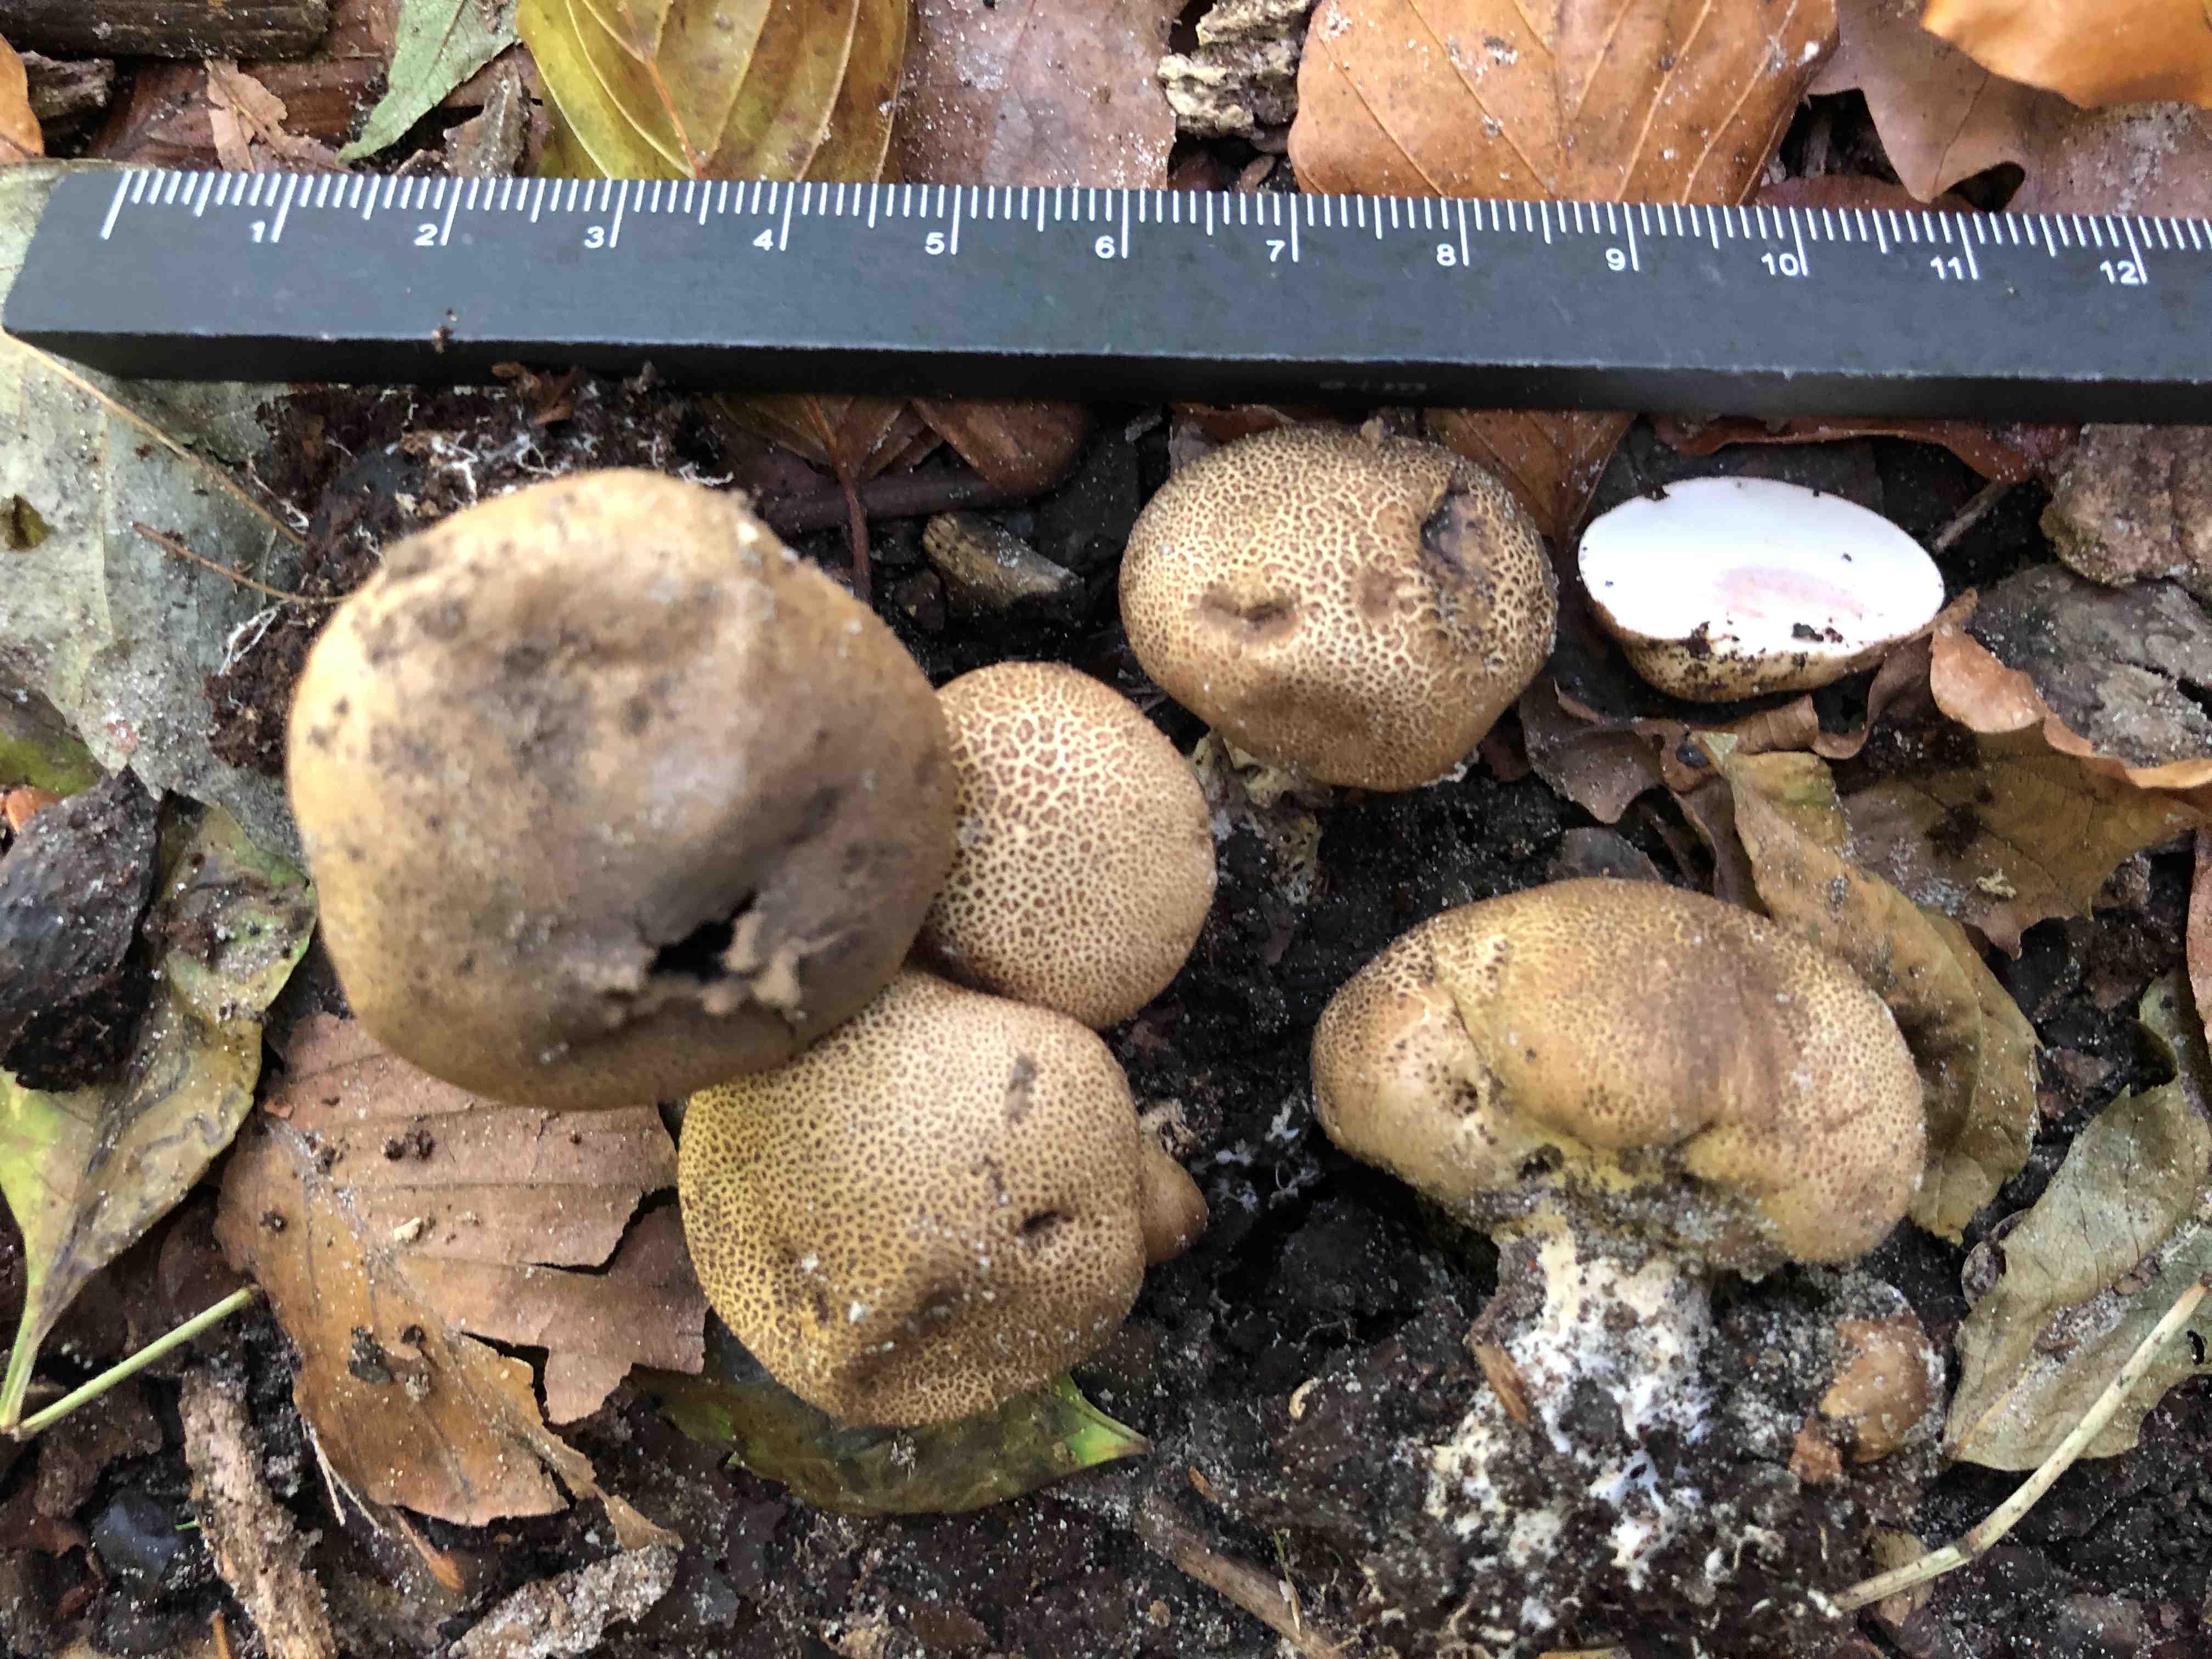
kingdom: Fungi
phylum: Basidiomycota
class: Agaricomycetes
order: Boletales
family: Sclerodermataceae
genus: Scleroderma
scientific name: Scleroderma areolatum
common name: plettet bruskbold
